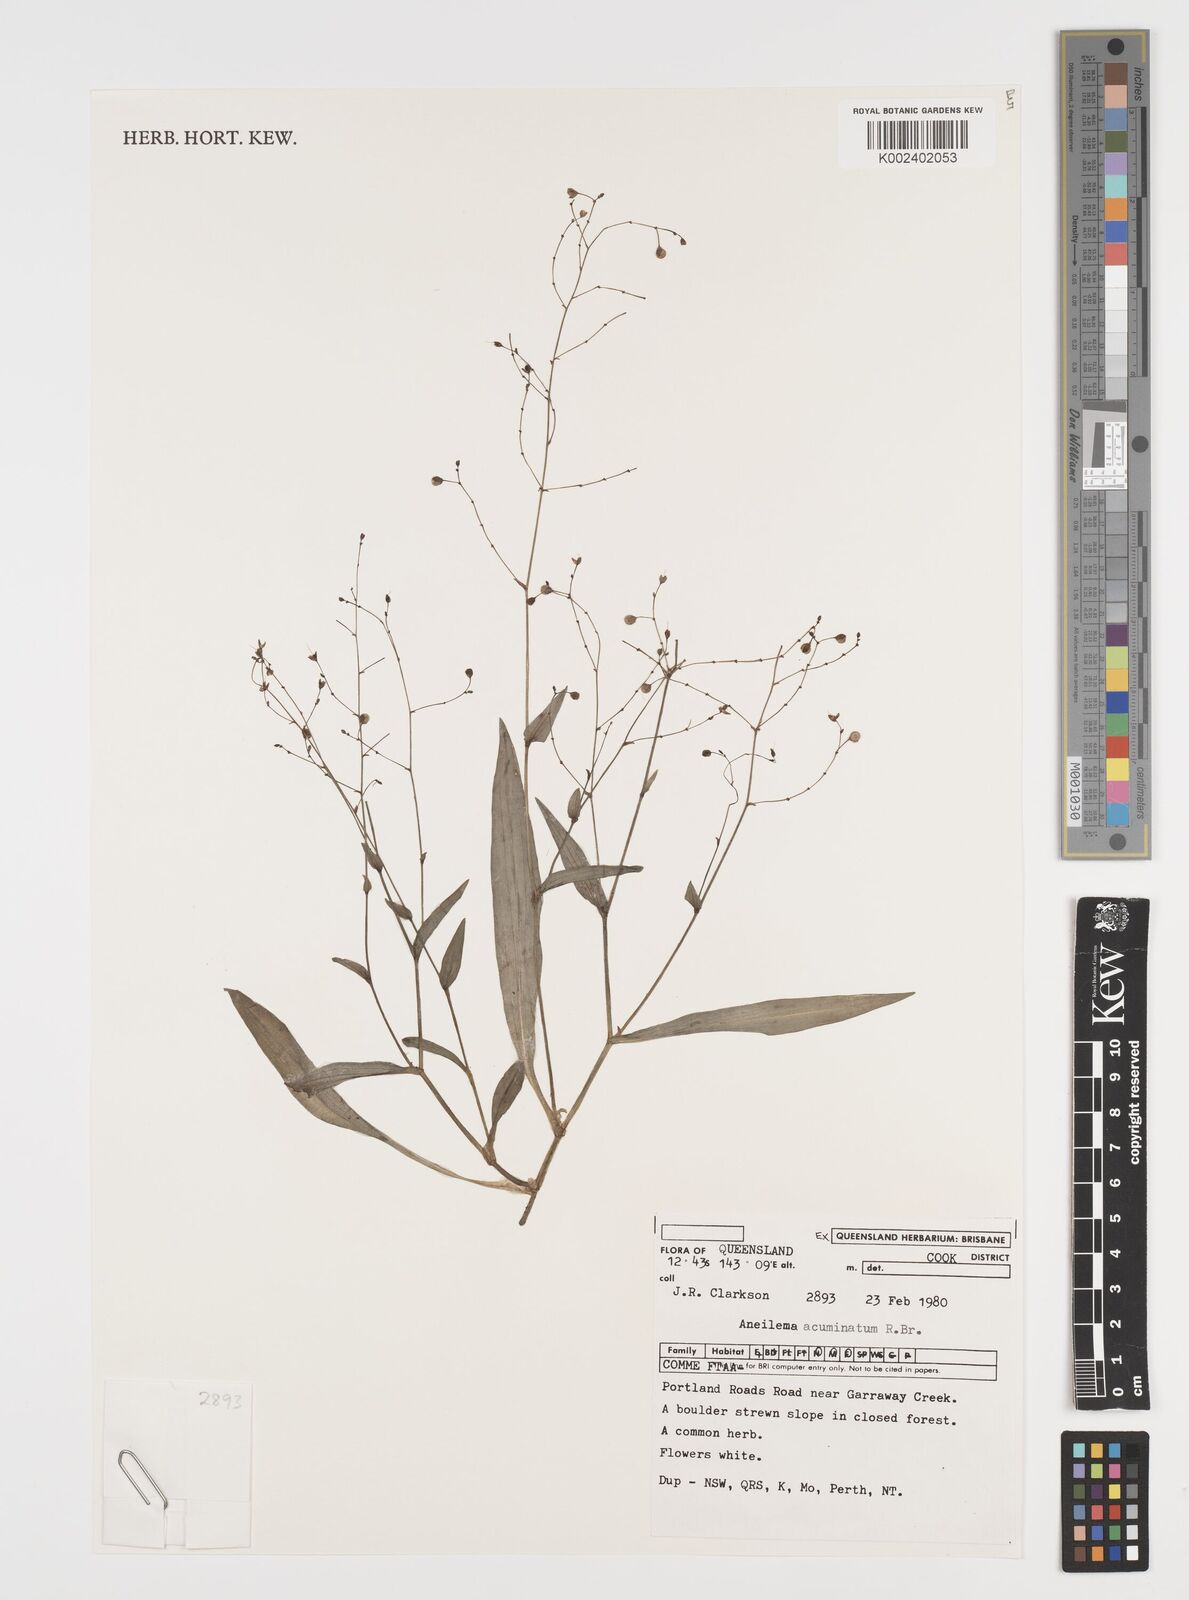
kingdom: Plantae
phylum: Tracheophyta
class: Liliopsida
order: Commelinales
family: Commelinaceae
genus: Aneilema
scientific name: Aneilema acuminatum
